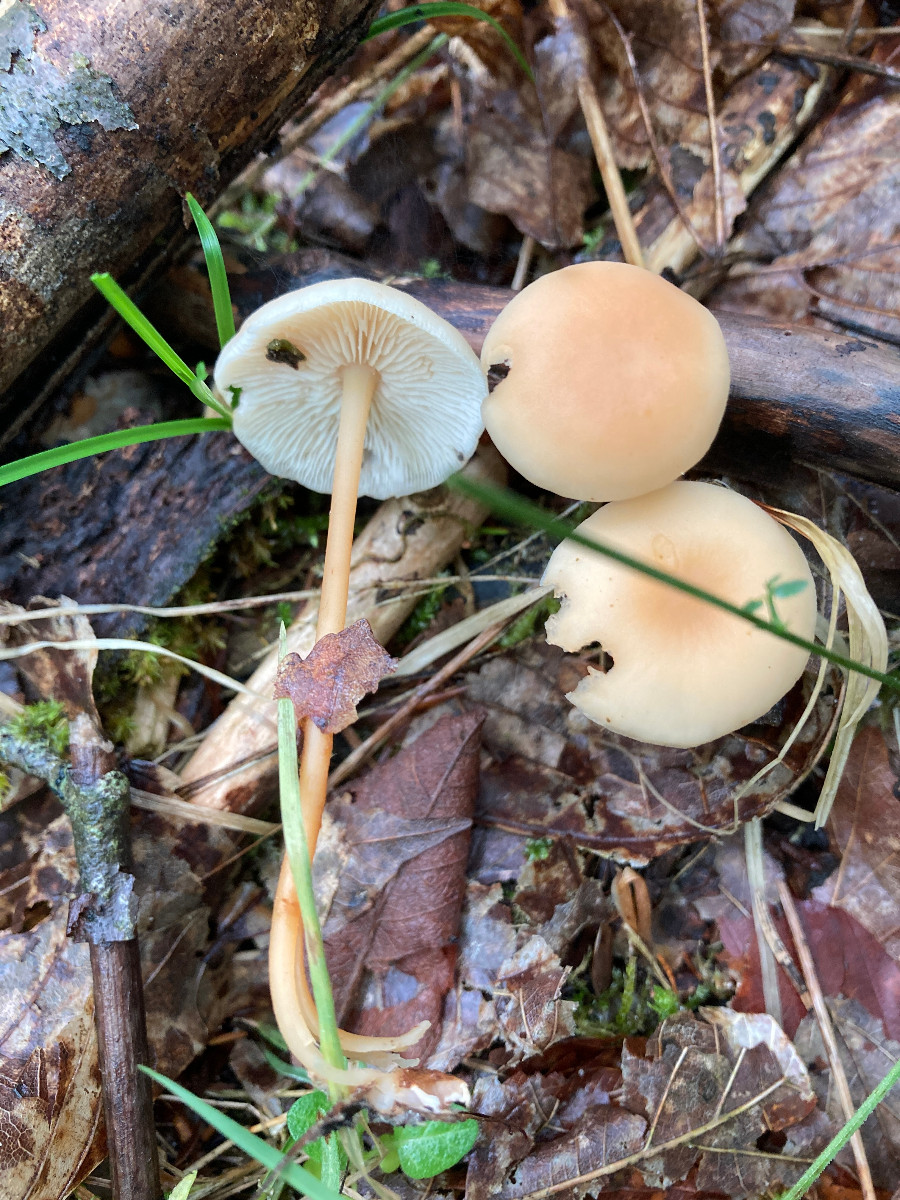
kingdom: Fungi
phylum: Basidiomycota
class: Agaricomycetes
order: Agaricales
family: Omphalotaceae
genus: Gymnopus
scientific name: Gymnopus
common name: fladhat
